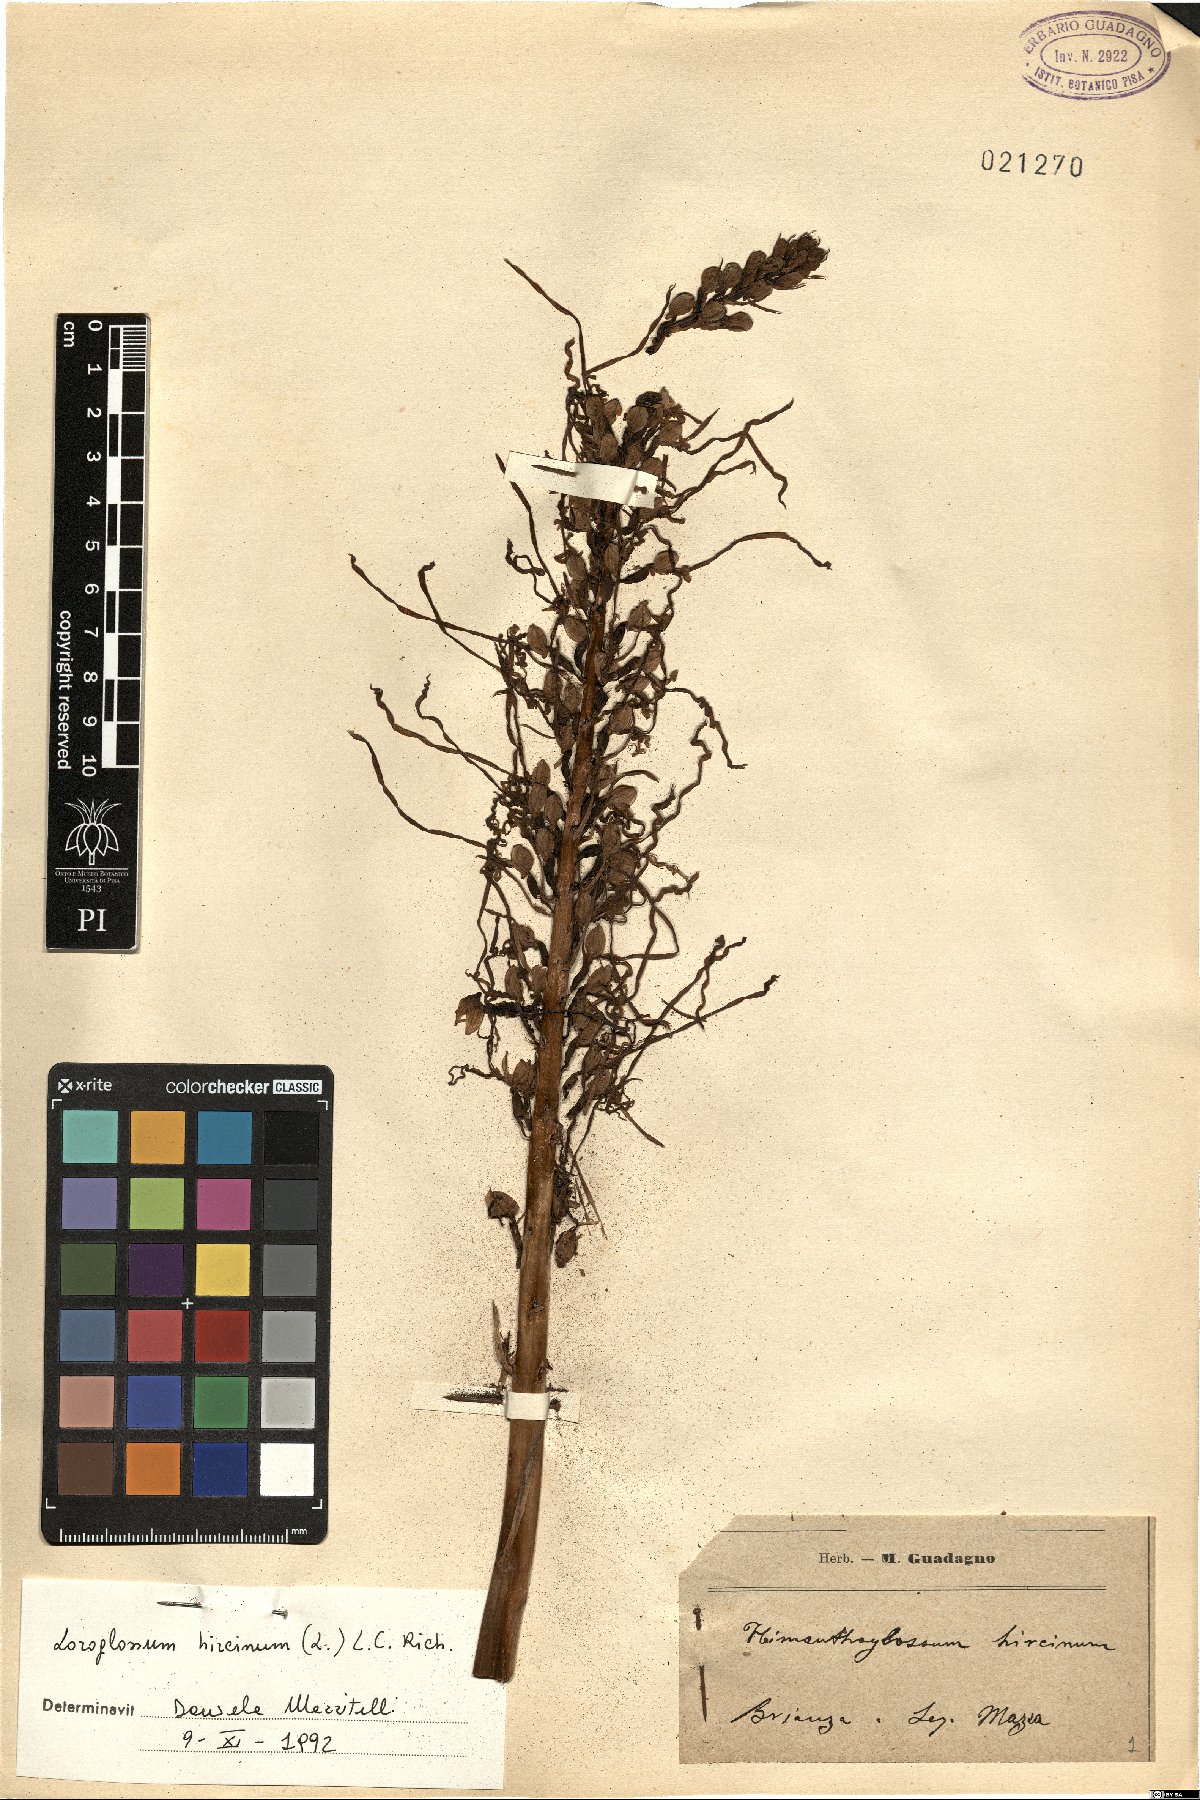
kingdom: Plantae
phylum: Tracheophyta
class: Liliopsida
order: Asparagales
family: Orchidaceae
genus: Himantoglossum
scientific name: Himantoglossum hircinum
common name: Lizard orchid
